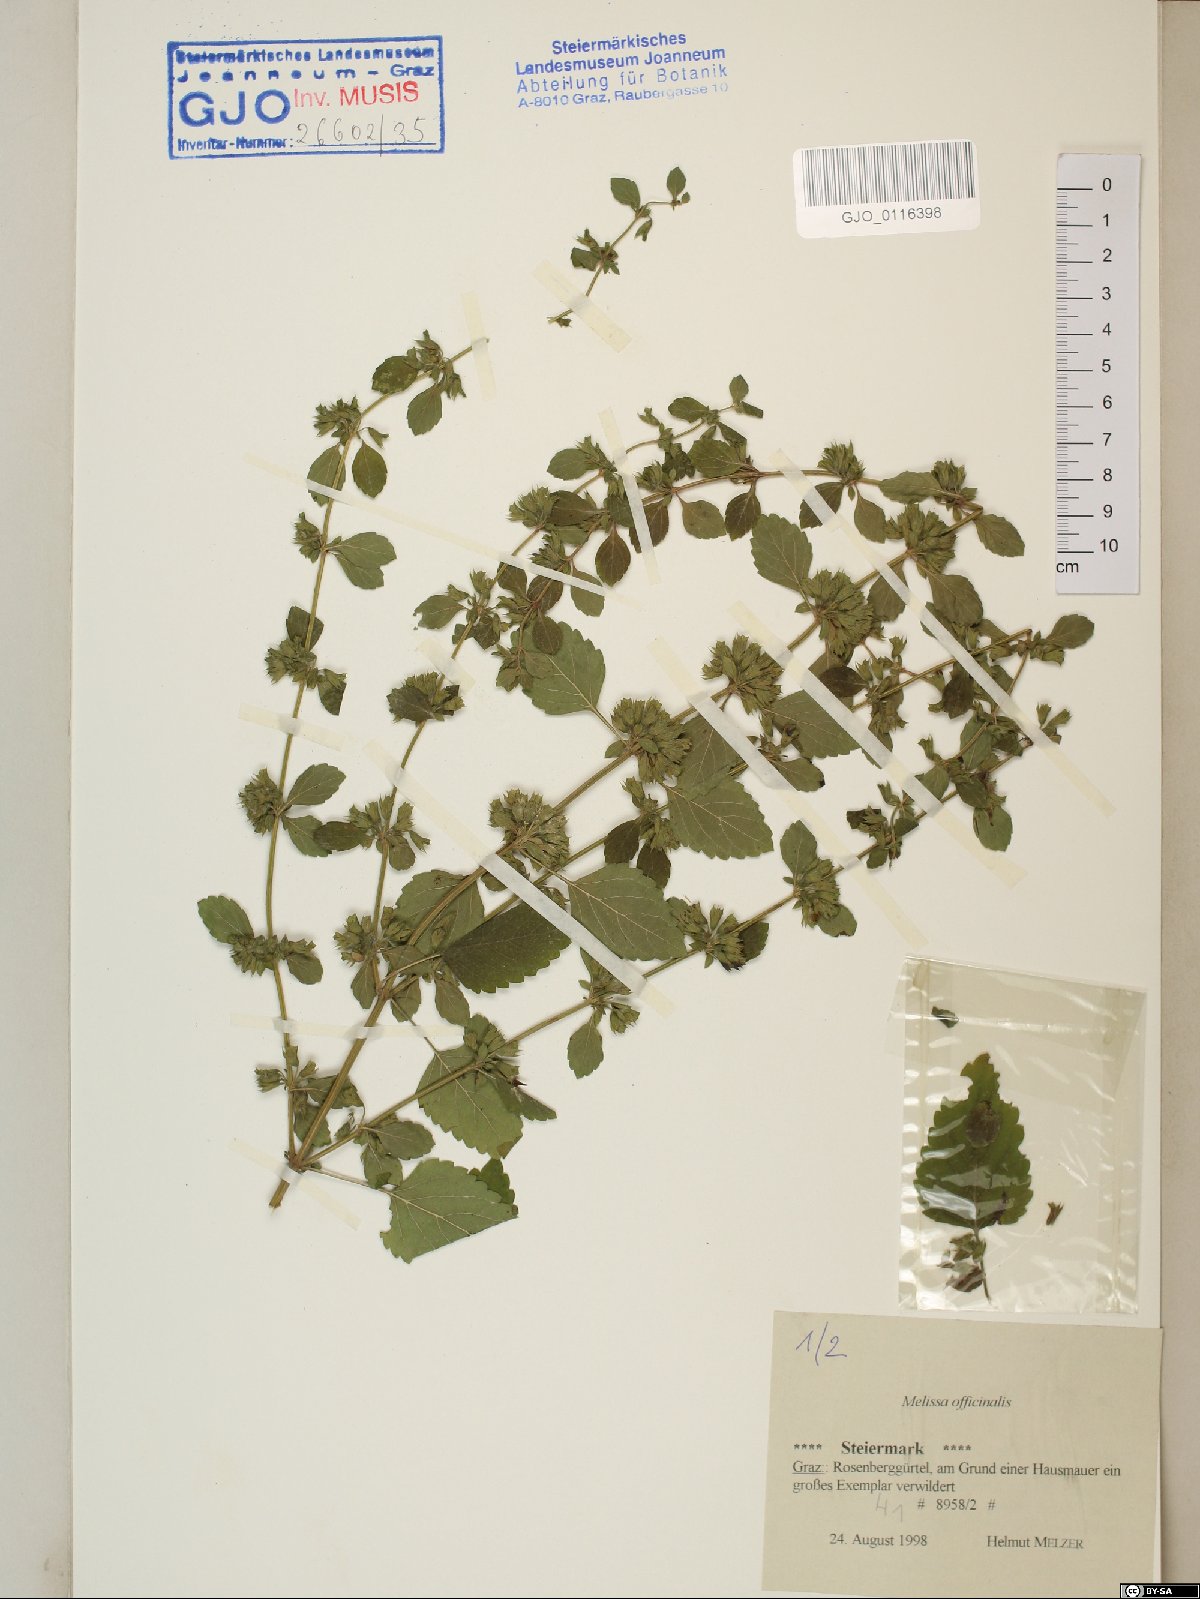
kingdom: Plantae
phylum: Tracheophyta
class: Magnoliopsida
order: Lamiales
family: Lamiaceae
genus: Melissa
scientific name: Melissa officinalis
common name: Balm
